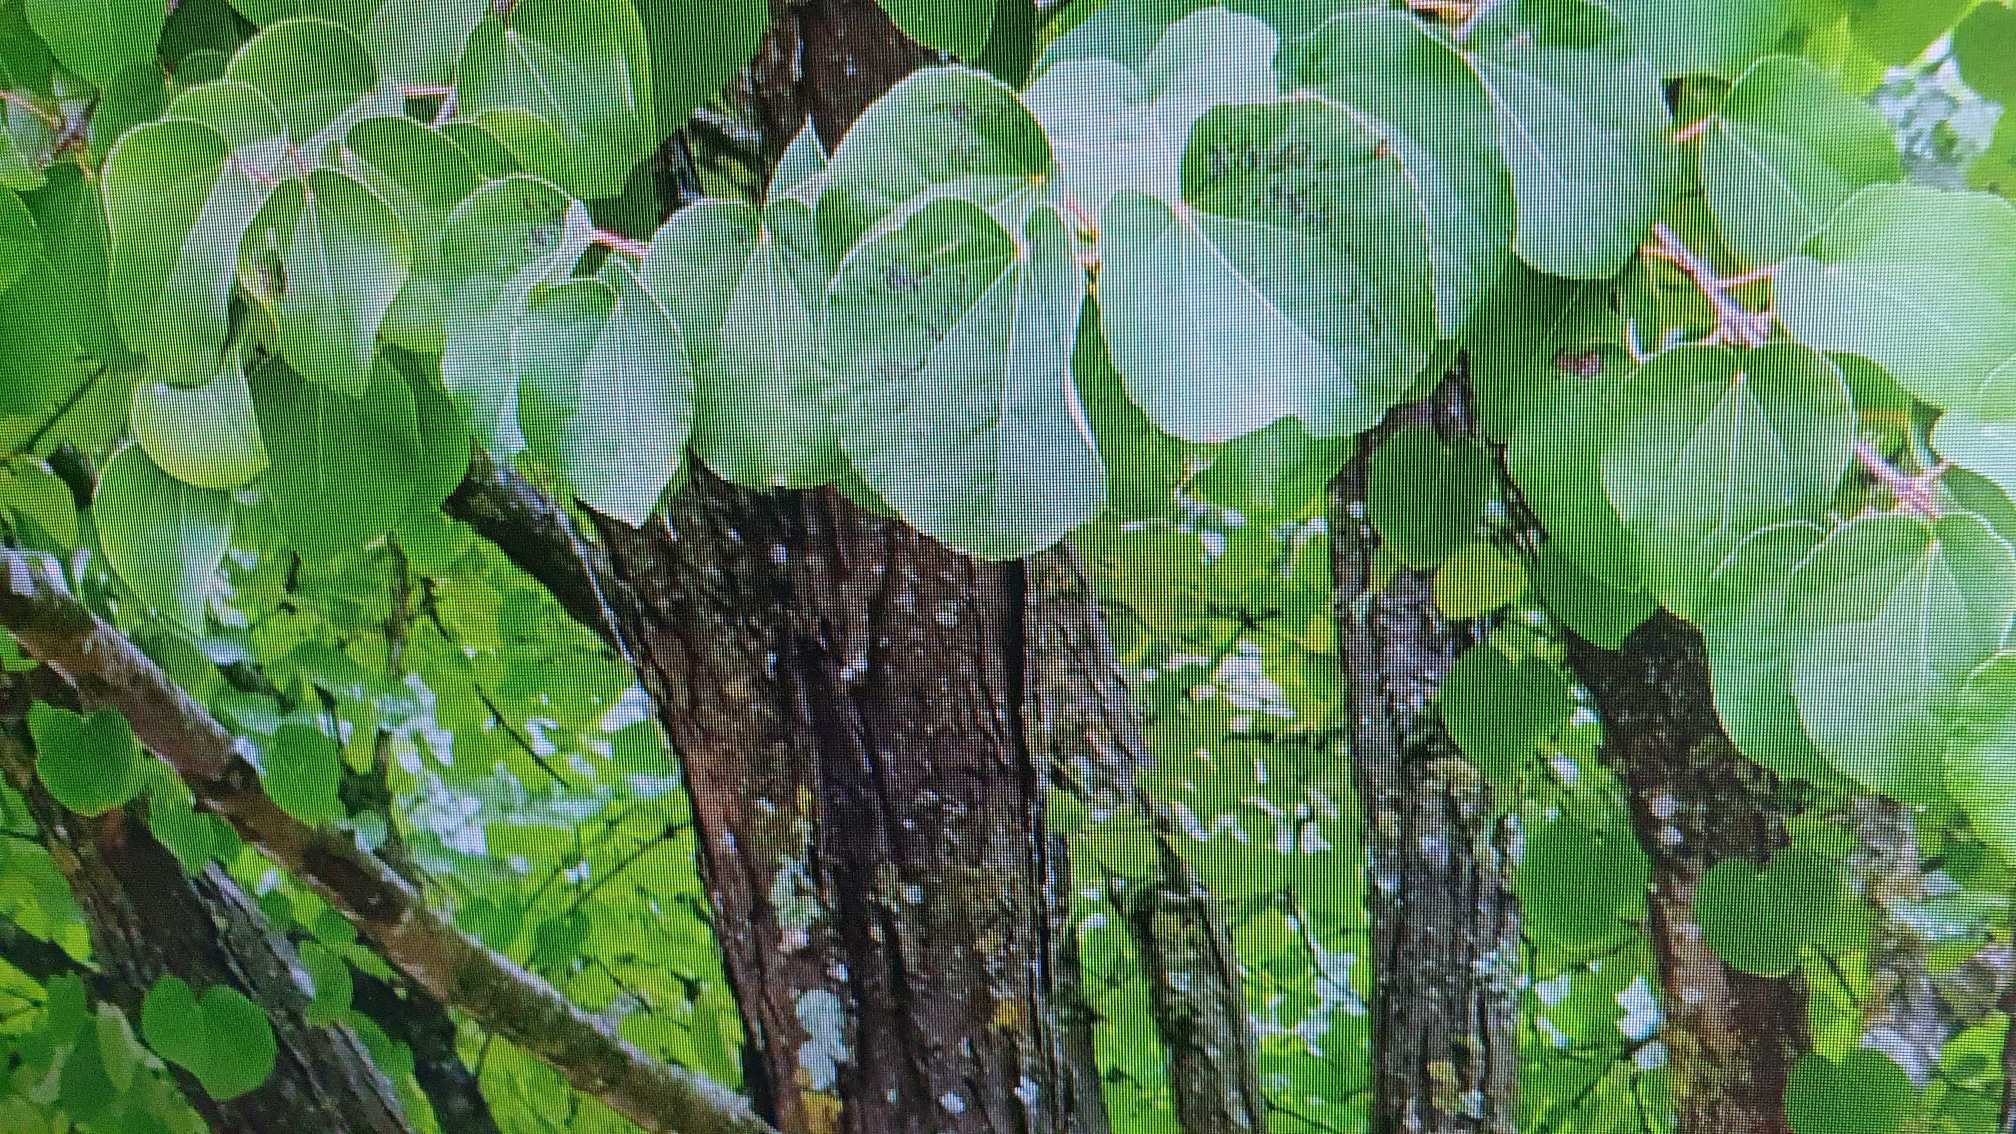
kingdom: Plantae
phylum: Tracheophyta
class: Magnoliopsida
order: Saxifragales
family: Cercidiphyllaceae
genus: Cercidiphyllum
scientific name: Cercidiphyllum japonicum
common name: Hjertetræ
